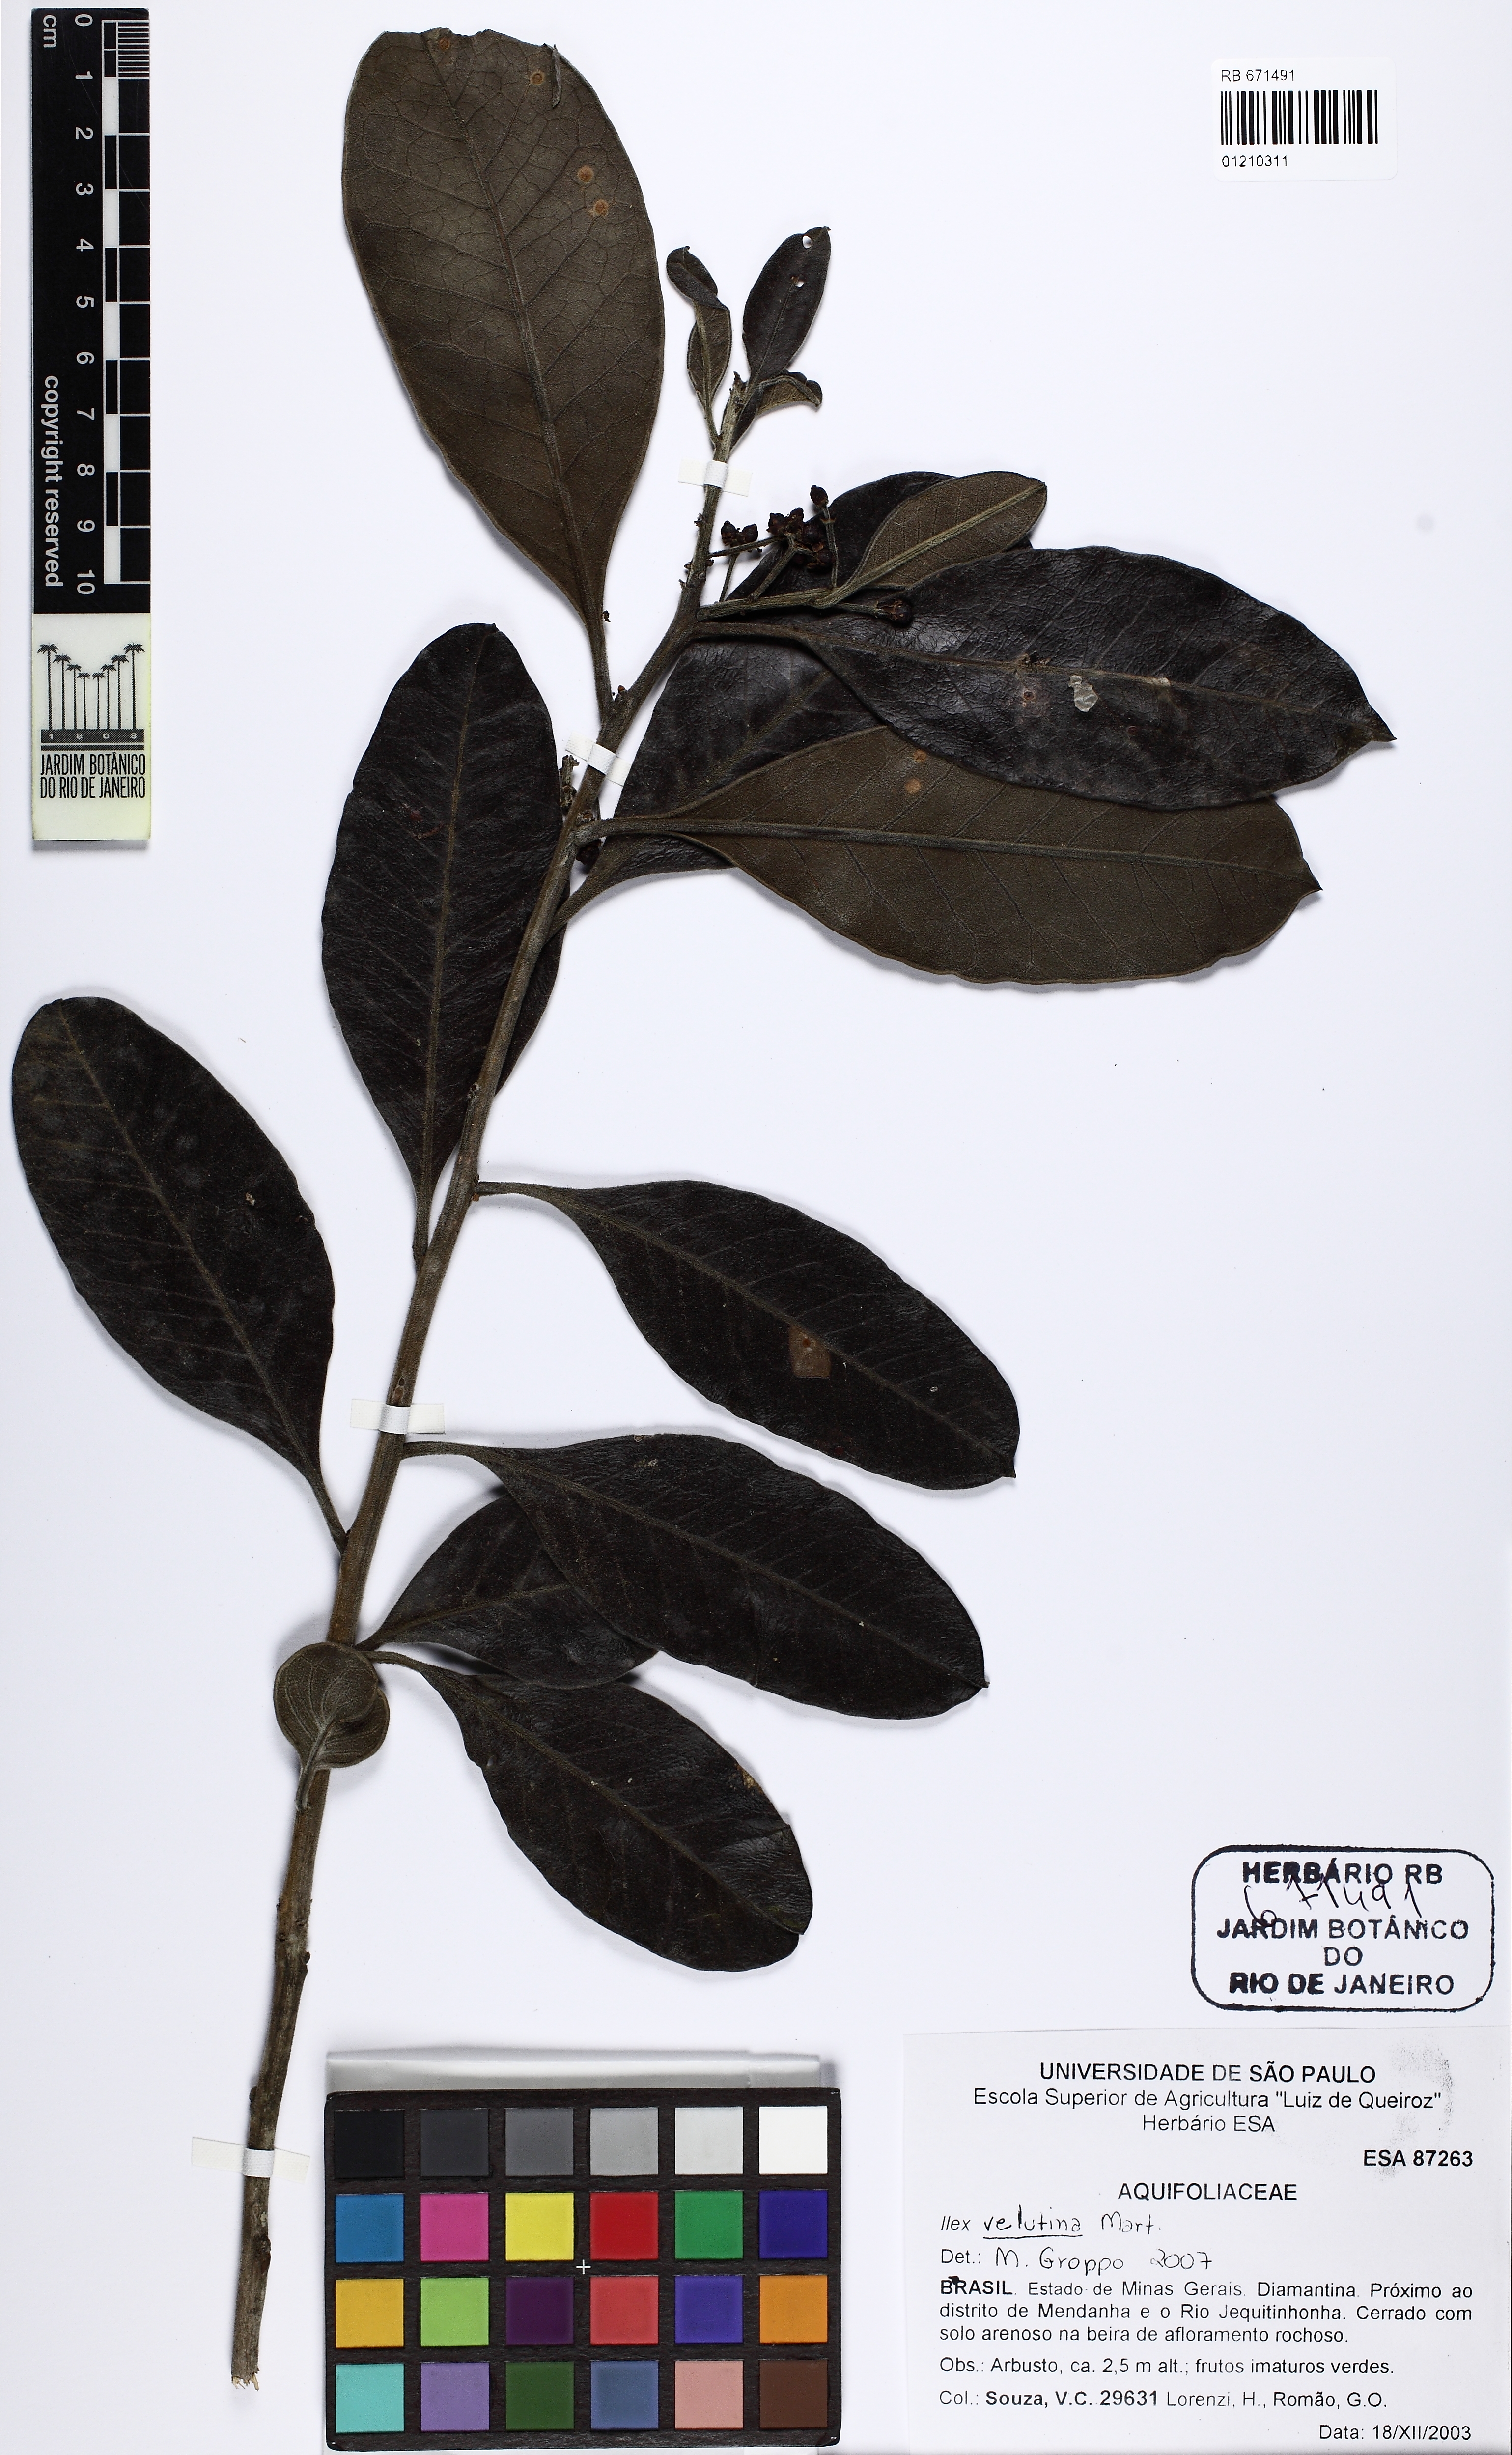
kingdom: Plantae
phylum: Tracheophyta
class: Magnoliopsida
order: Aquifoliales
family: Aquifoliaceae
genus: Ilex
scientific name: Ilex velutina
